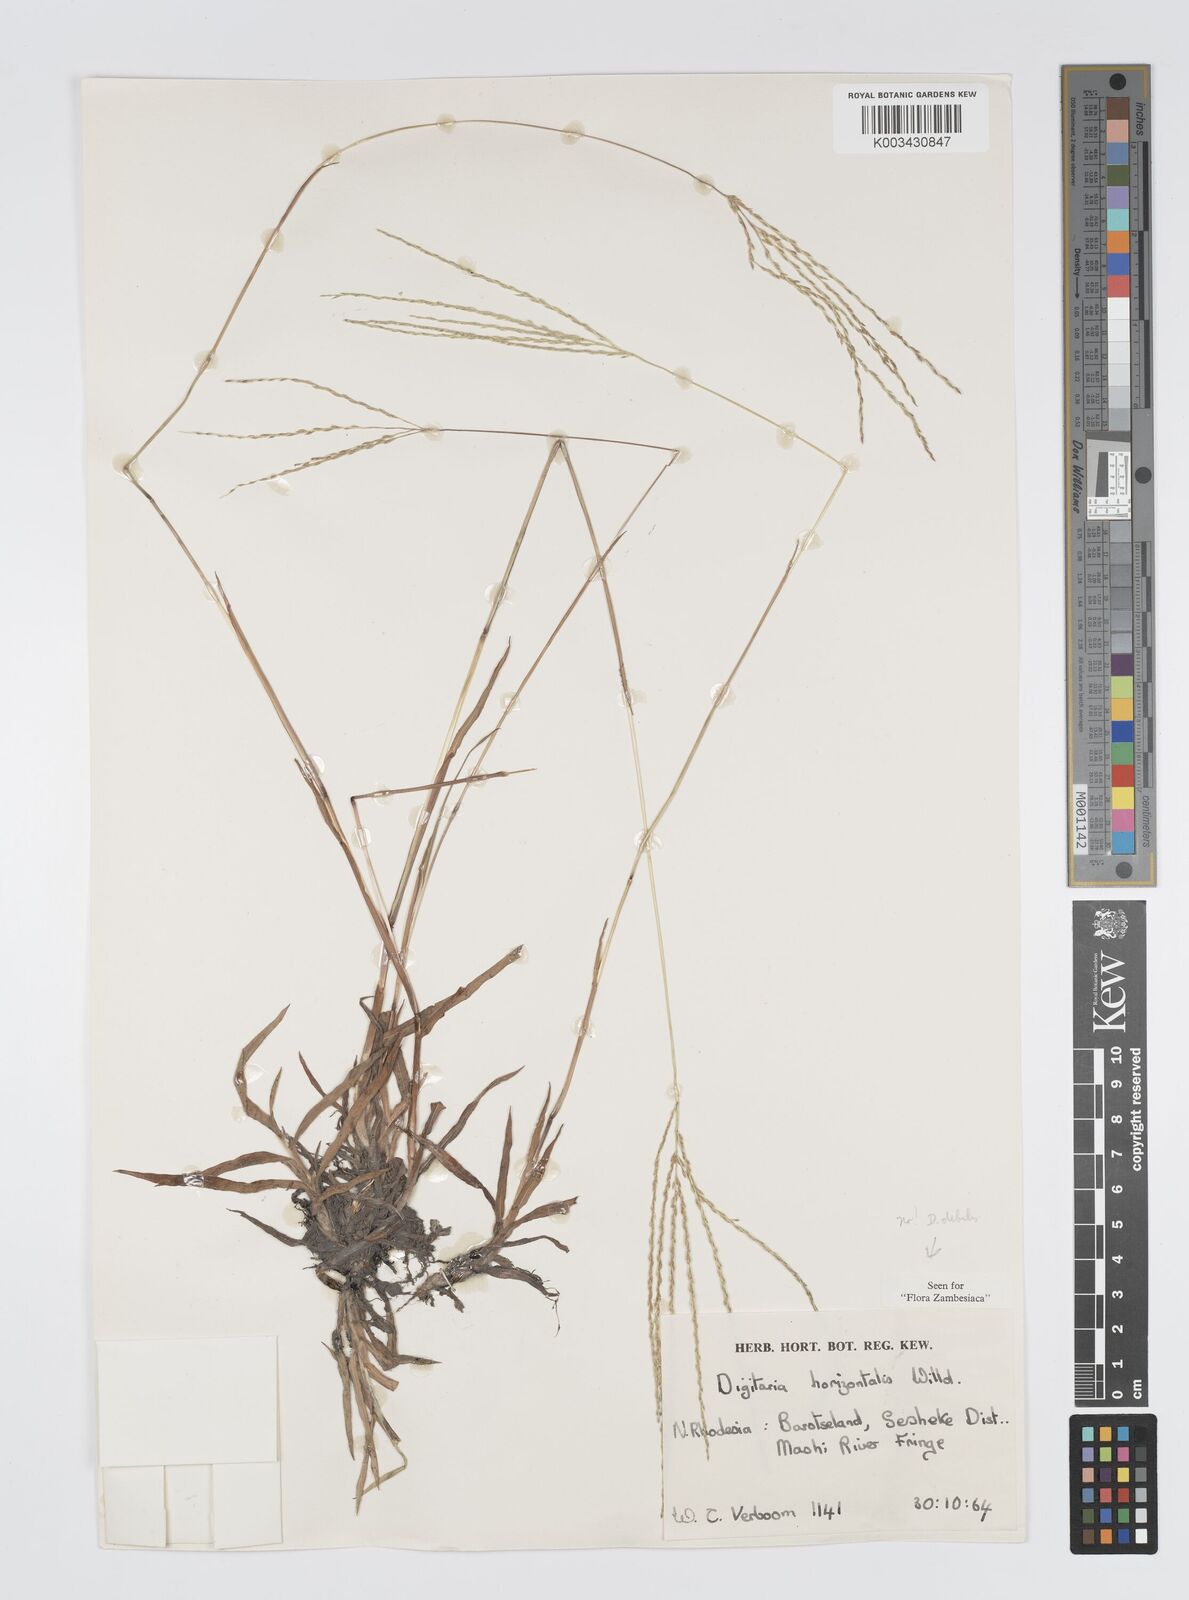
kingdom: Plantae
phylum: Tracheophyta
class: Liliopsida
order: Poales
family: Poaceae
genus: Digitaria
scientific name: Digitaria debilis
